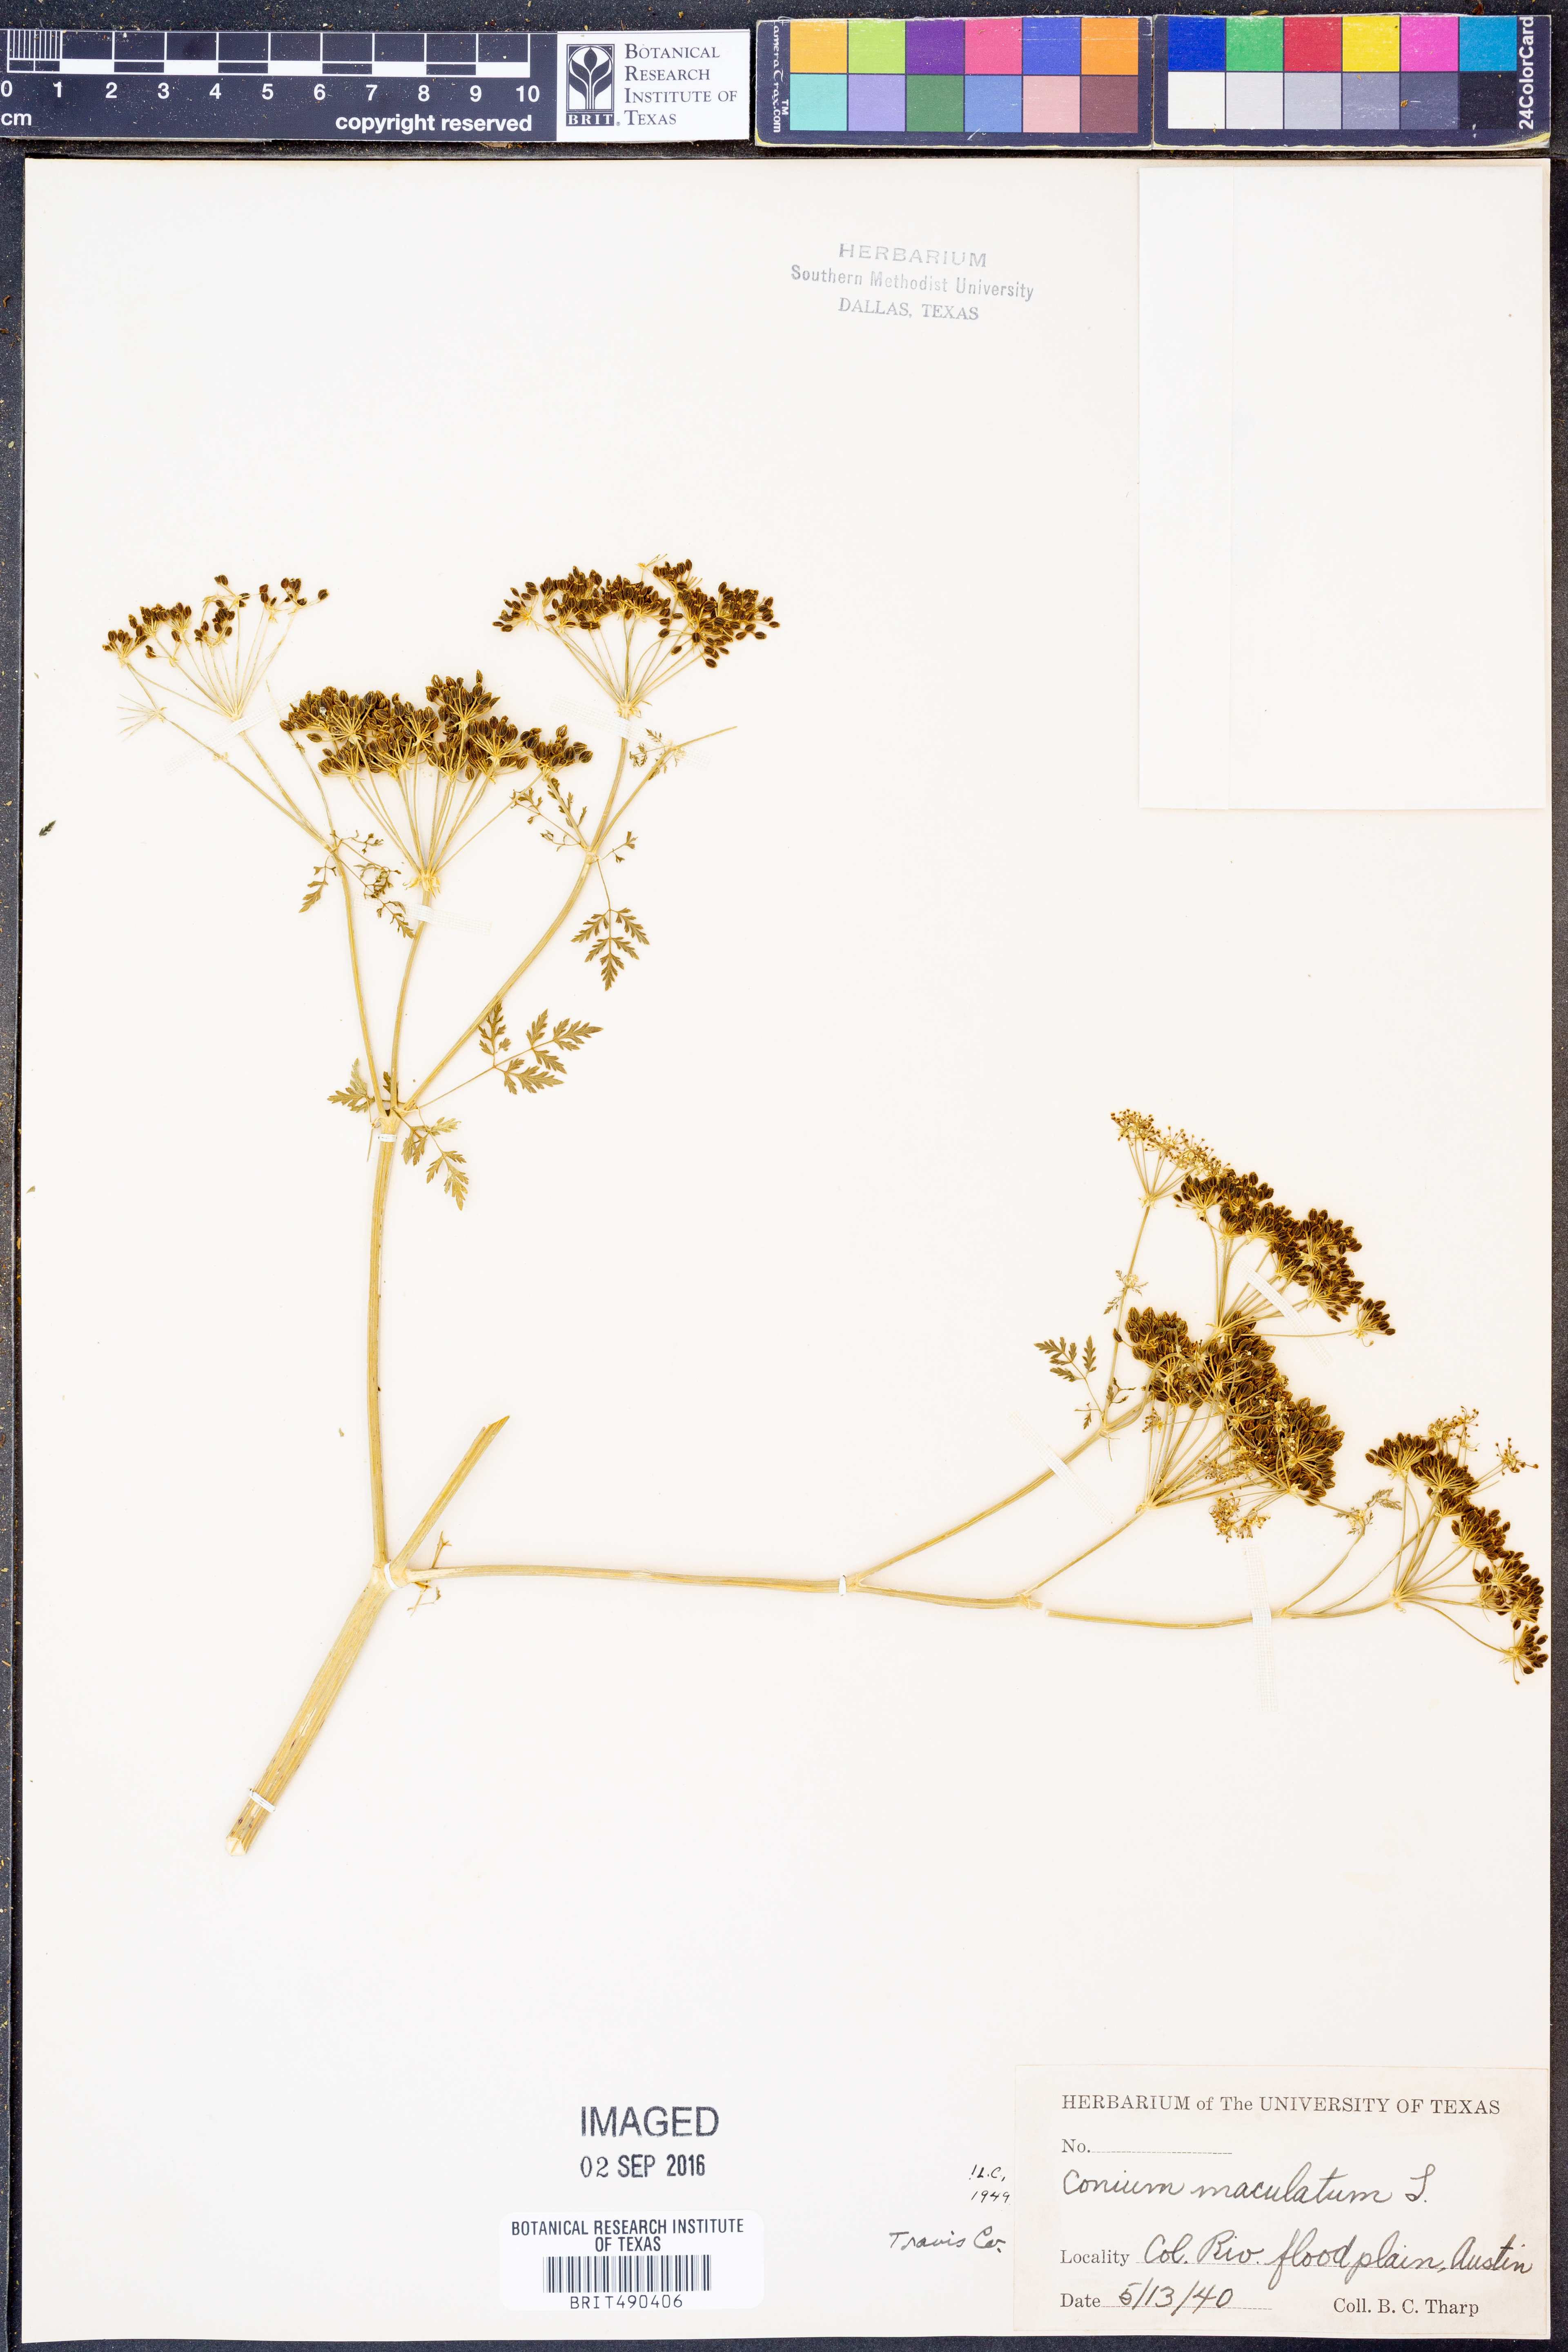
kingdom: Plantae
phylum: Tracheophyta
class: Magnoliopsida
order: Apiales
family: Apiaceae
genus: Conium
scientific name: Conium maculatum
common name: Hemlock
